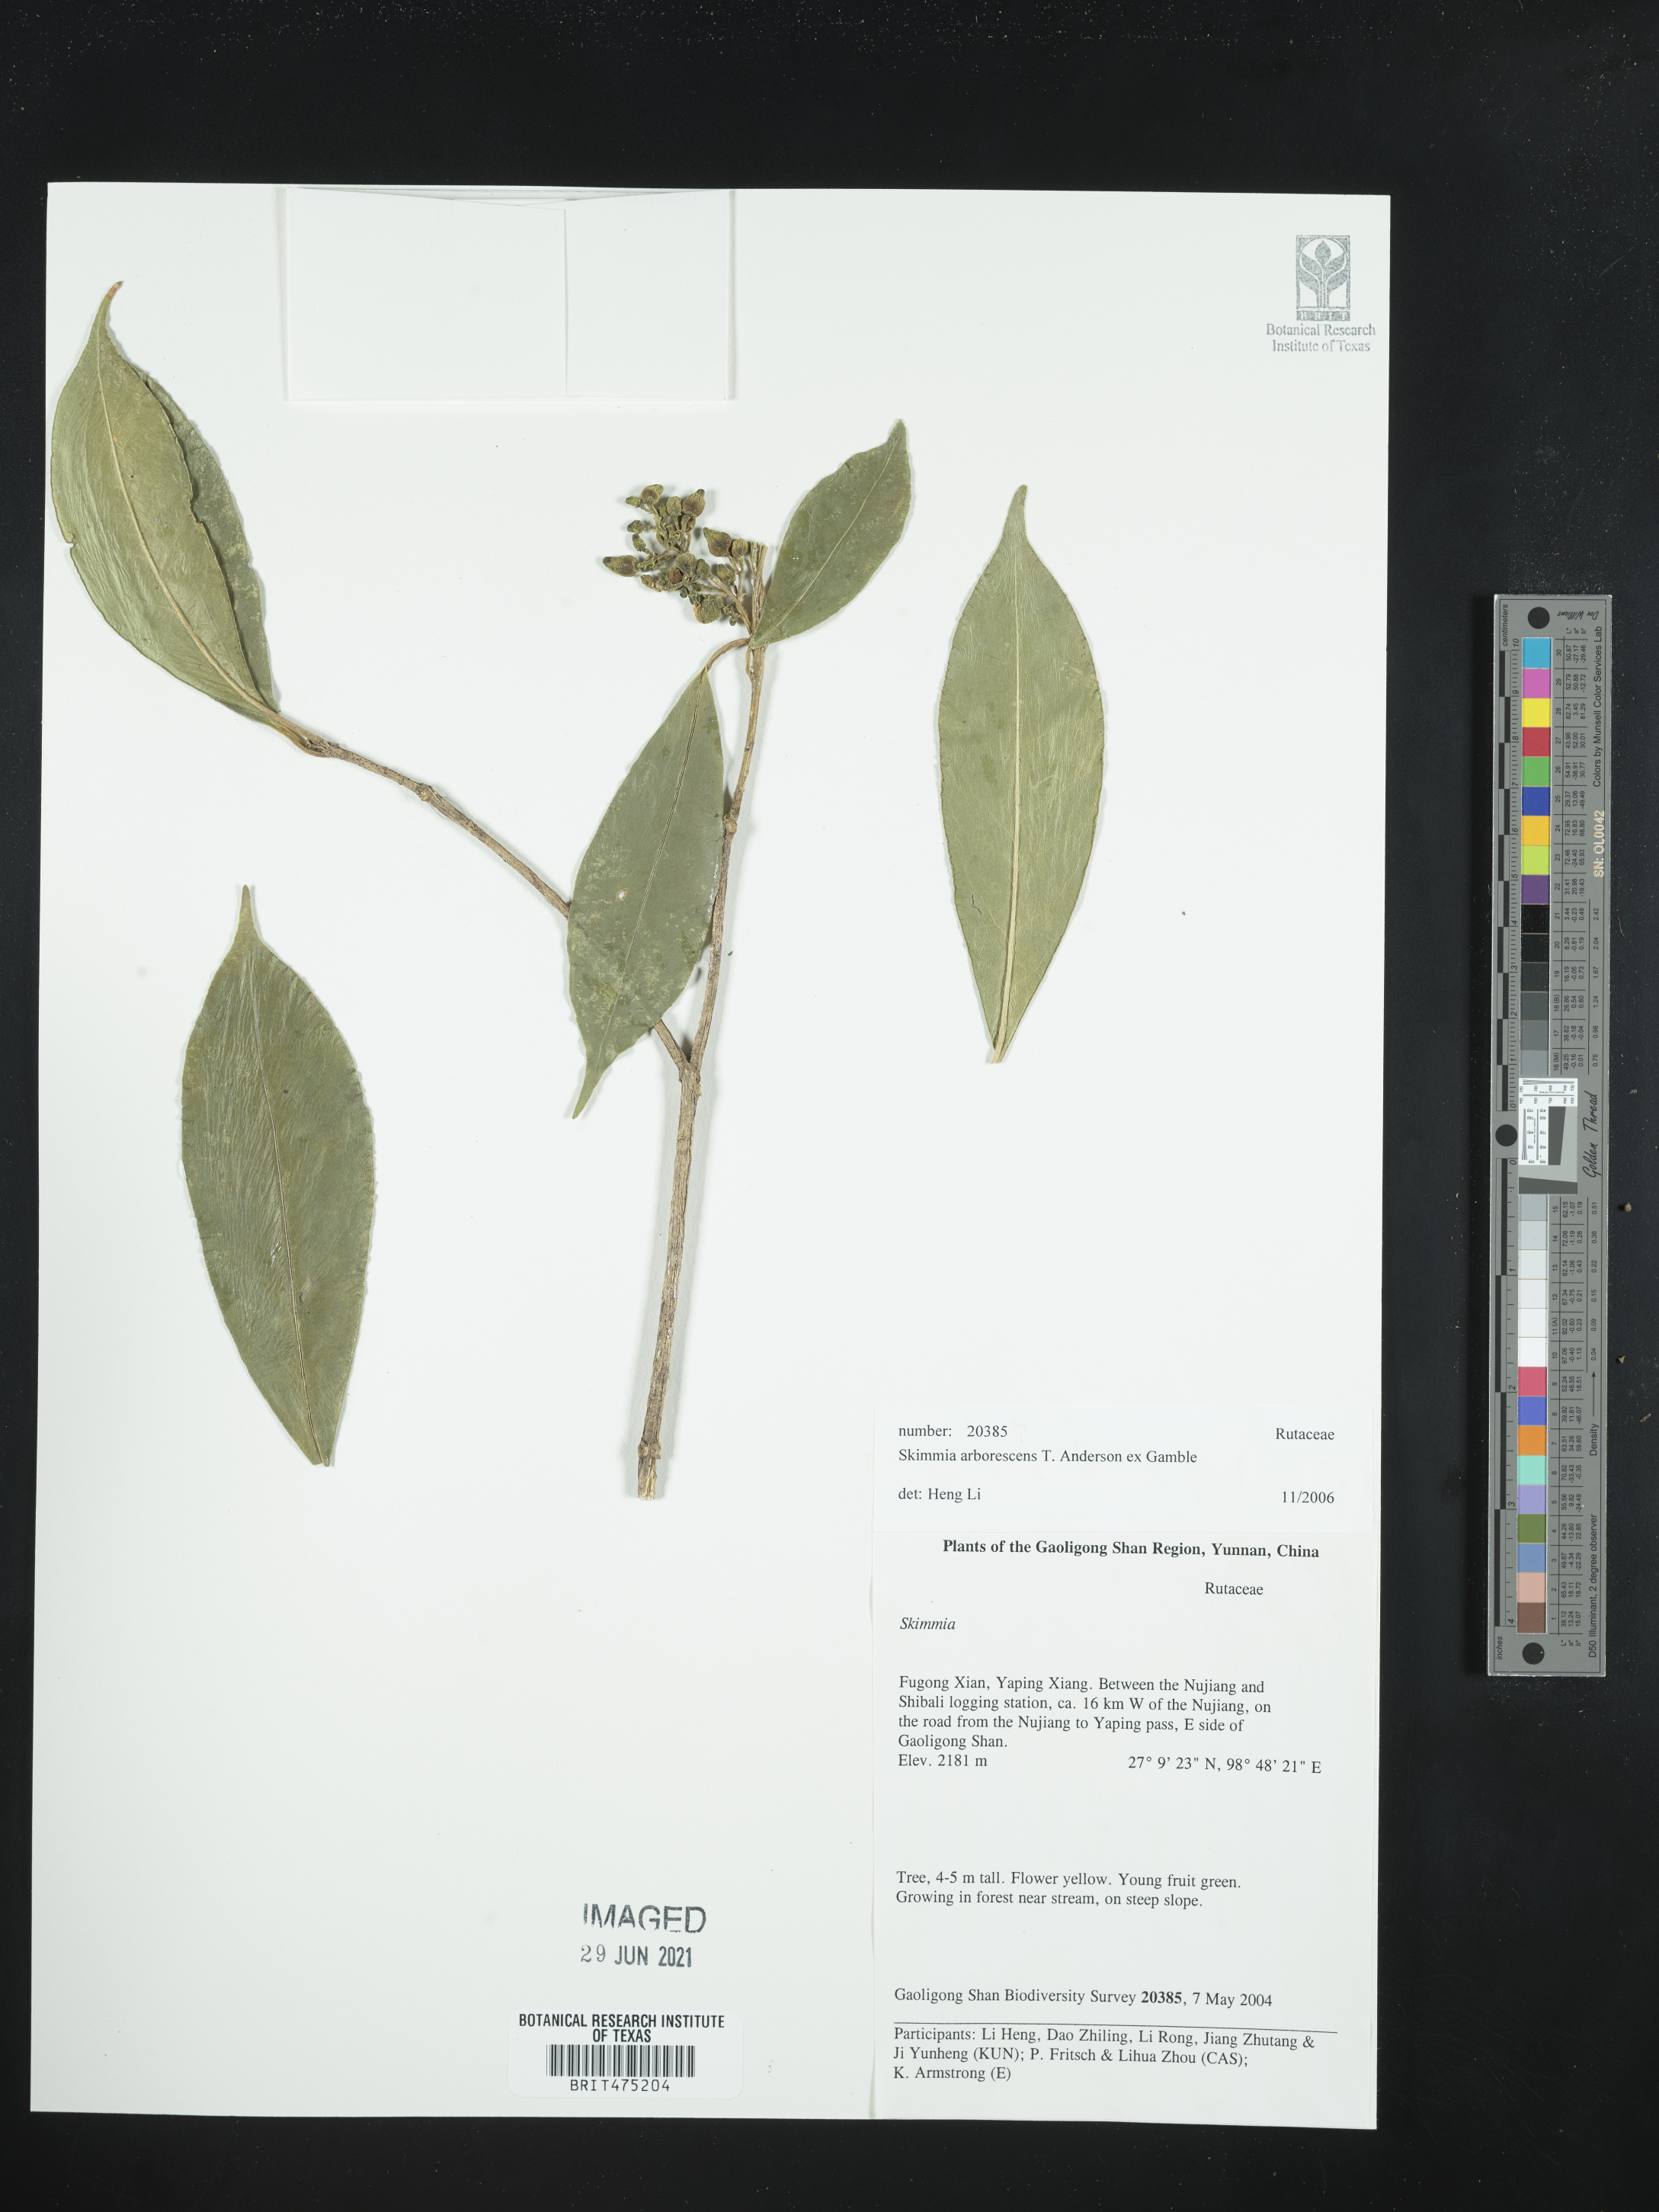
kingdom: Plantae
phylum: Tracheophyta
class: Magnoliopsida
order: Sapindales
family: Rutaceae
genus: Skimmia
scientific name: Skimmia arborescens
